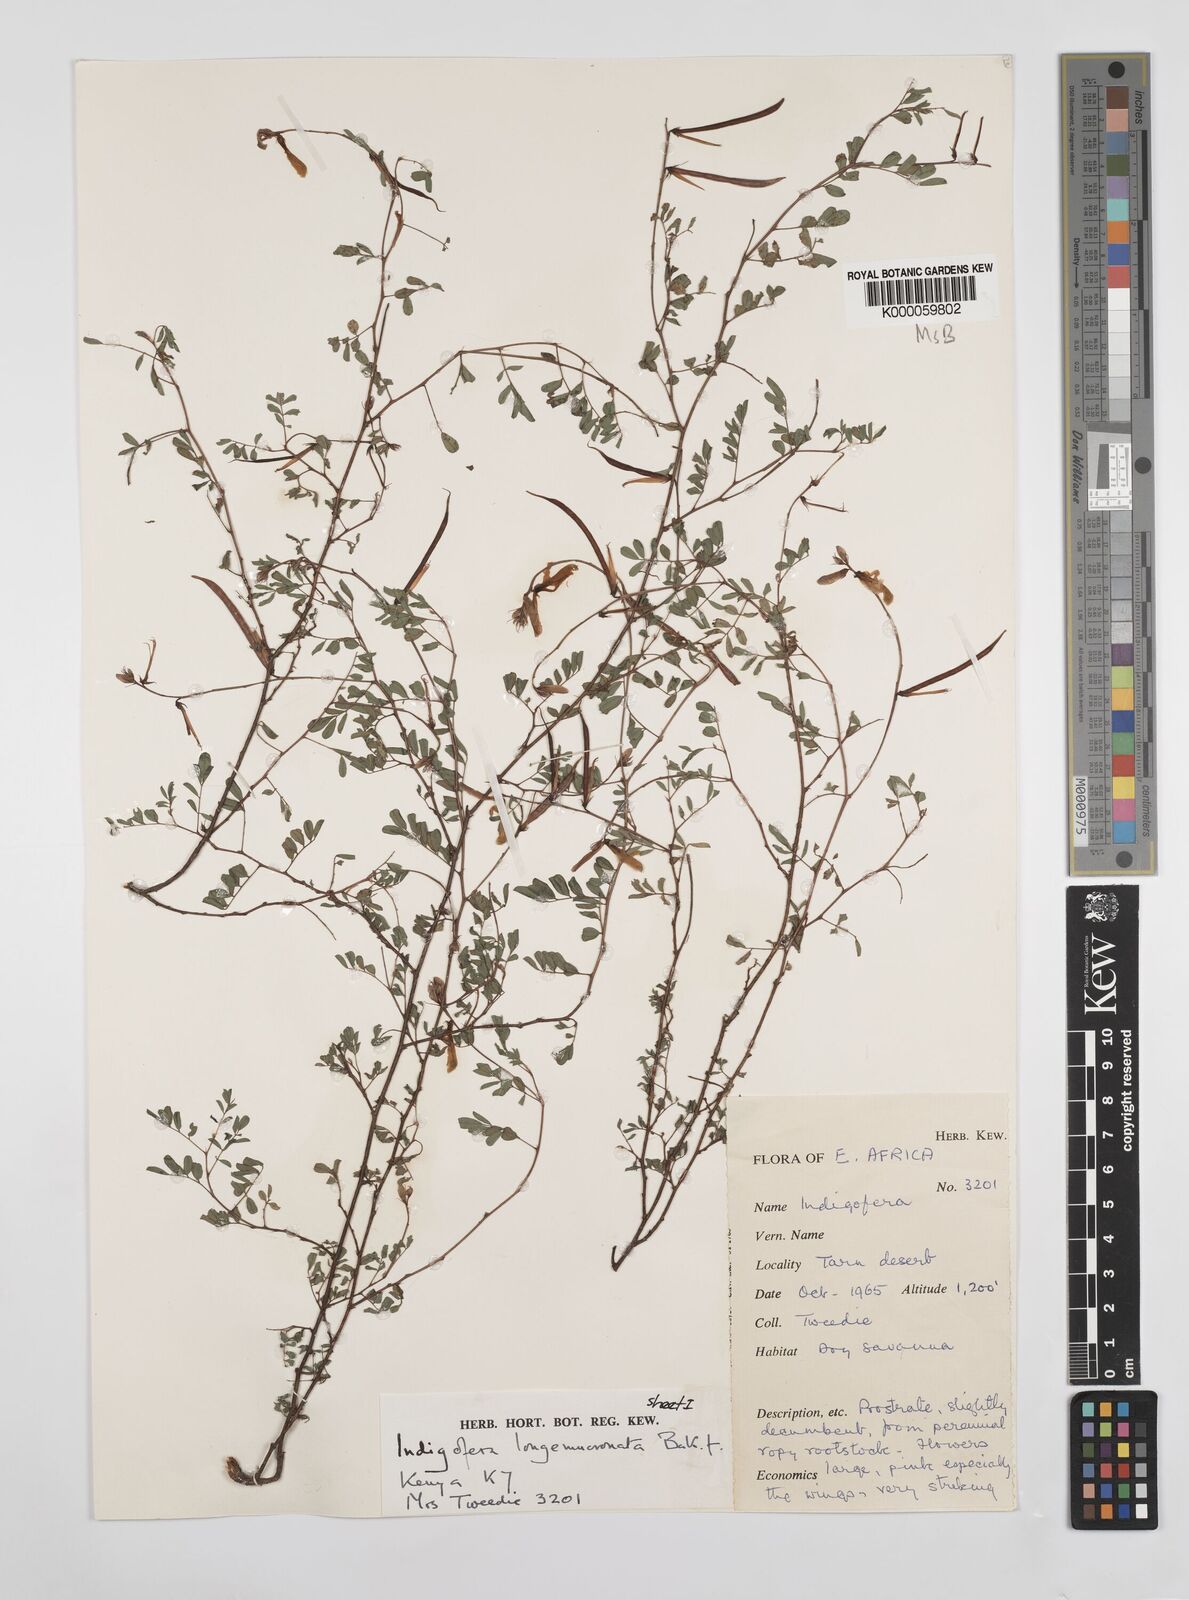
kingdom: Plantae
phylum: Tracheophyta
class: Magnoliopsida
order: Fabales
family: Fabaceae
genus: Berlinia
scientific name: Berlinia grandiflora
